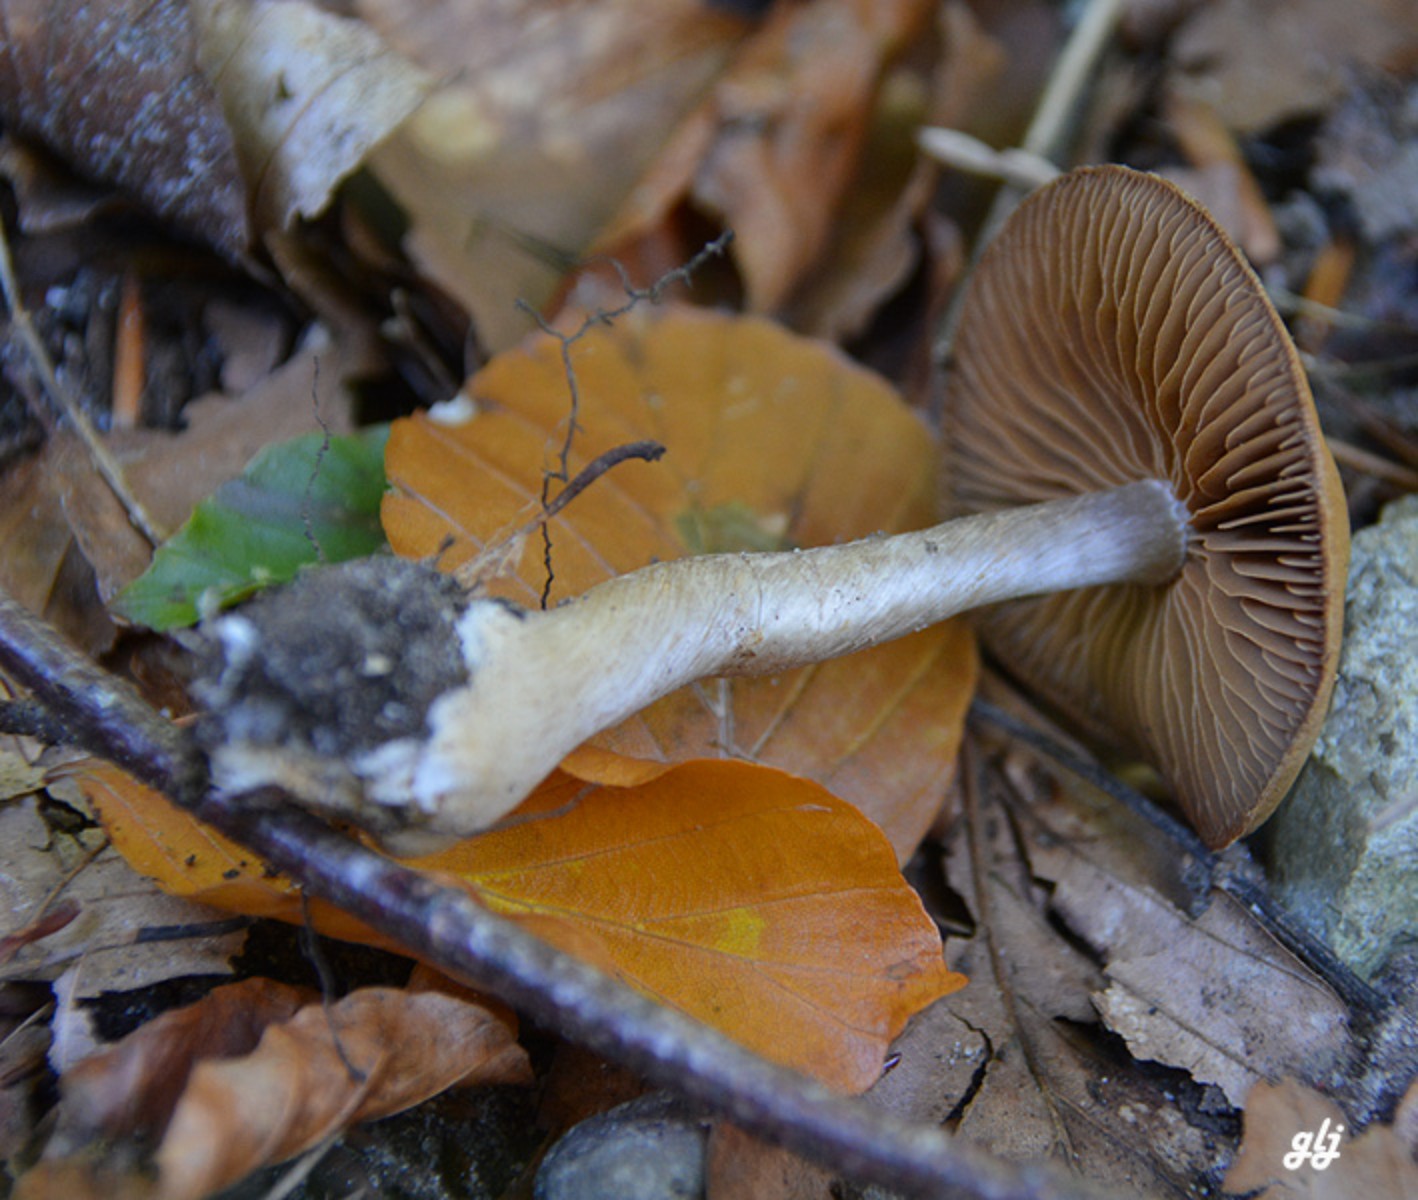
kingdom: Fungi
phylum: Basidiomycota
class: Agaricomycetes
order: Agaricales
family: Cortinariaceae
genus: Cortinarius
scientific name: Cortinarius
